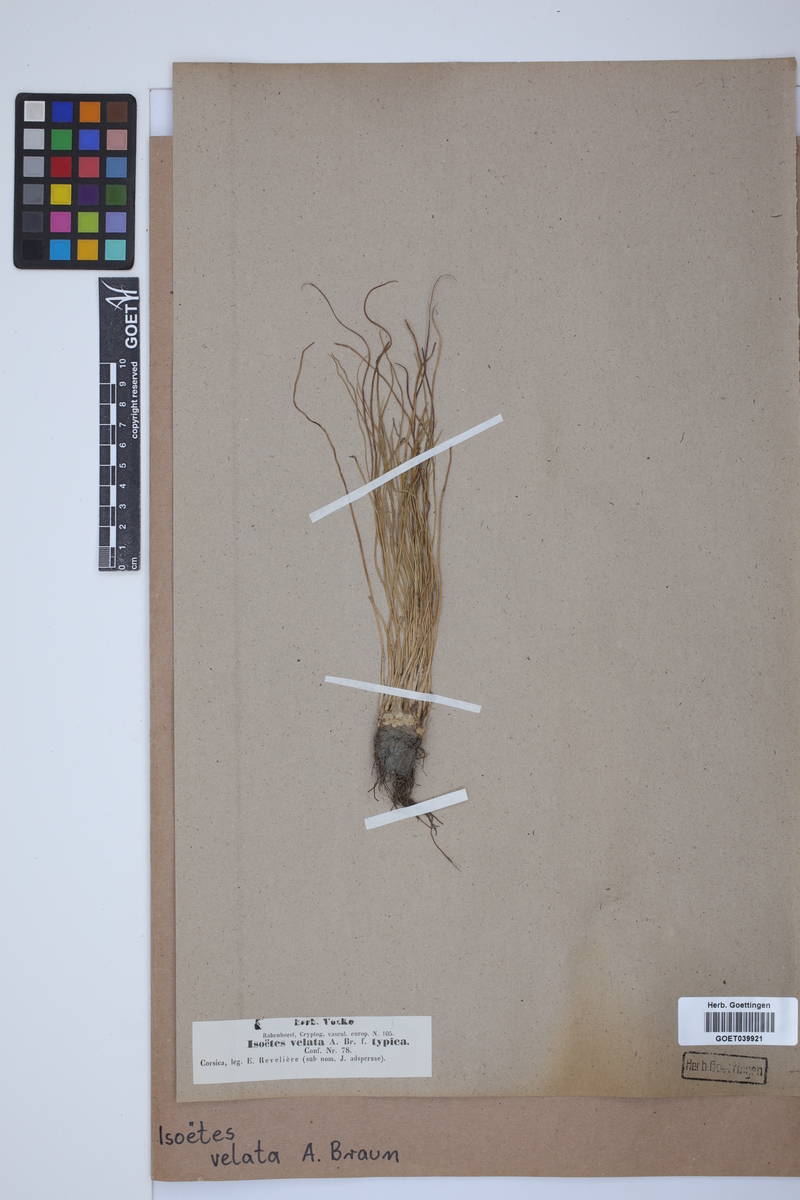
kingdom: Plantae
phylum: Tracheophyta
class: Lycopodiopsida
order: Isoetales
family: Isoetaceae
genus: Isoetes
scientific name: Isoetes longissima
